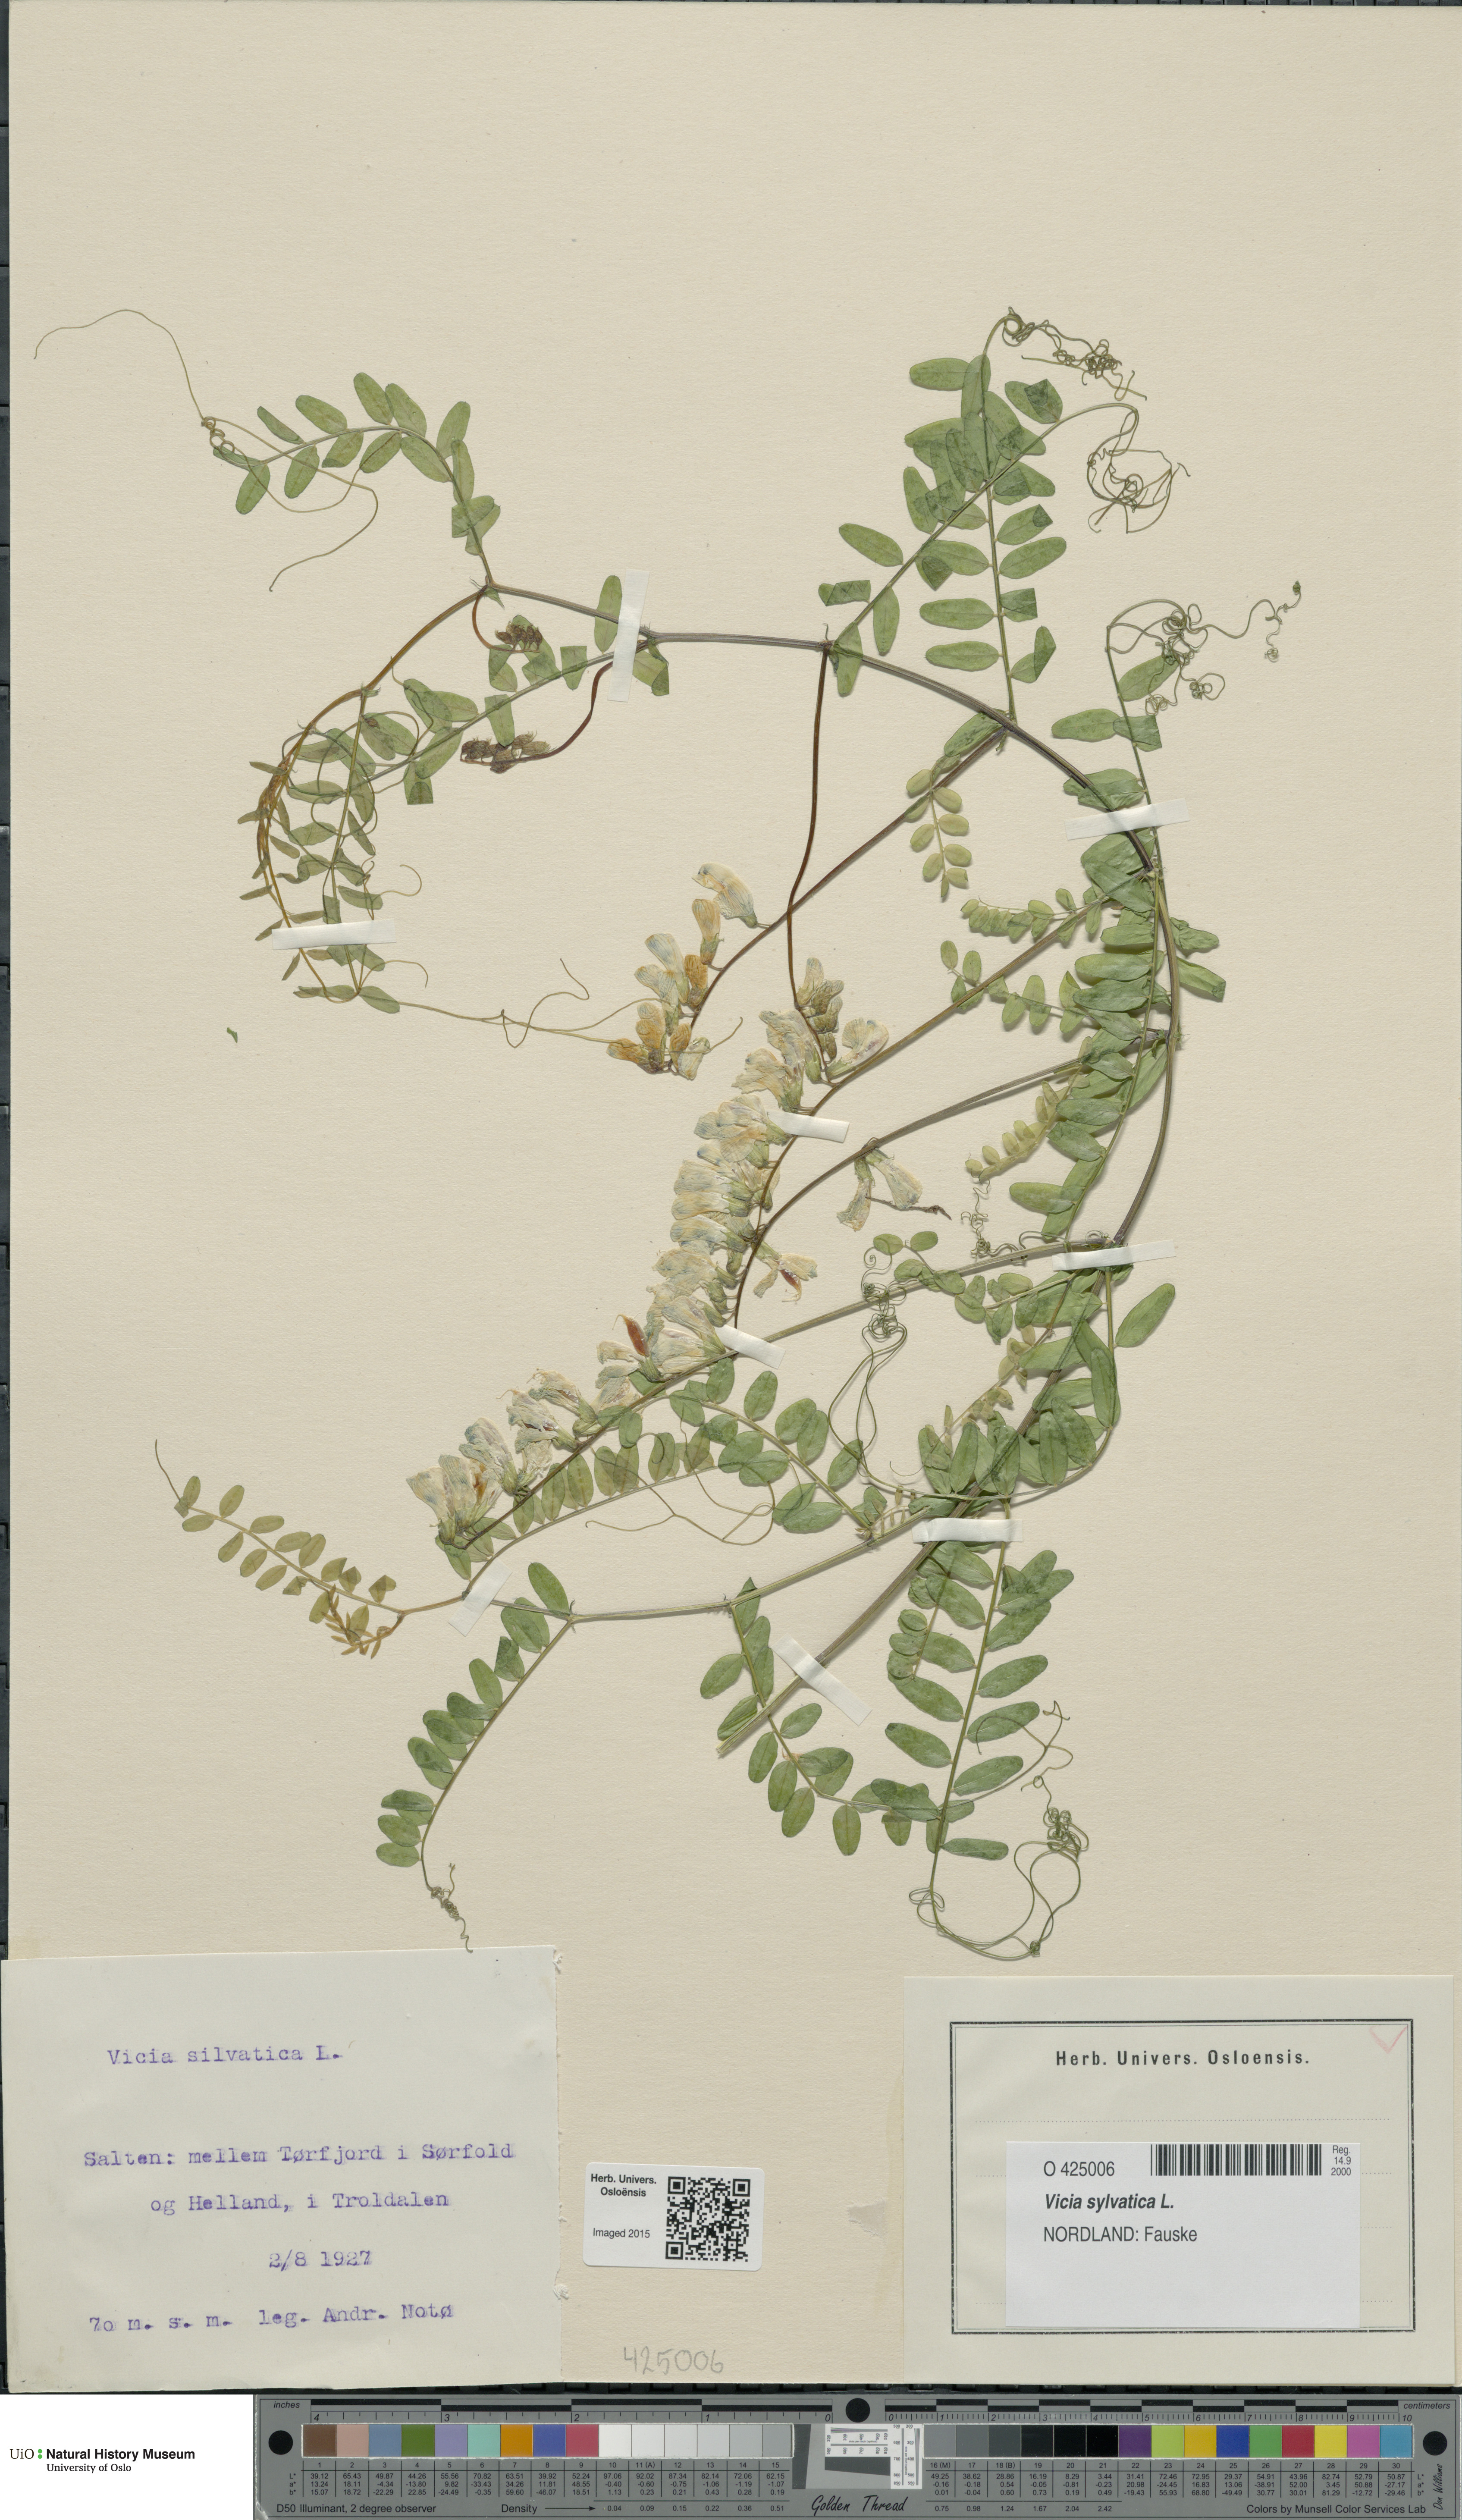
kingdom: Plantae
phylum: Tracheophyta
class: Magnoliopsida
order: Fabales
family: Fabaceae
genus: Vicia
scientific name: Vicia sylvatica
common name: Wood vetch
